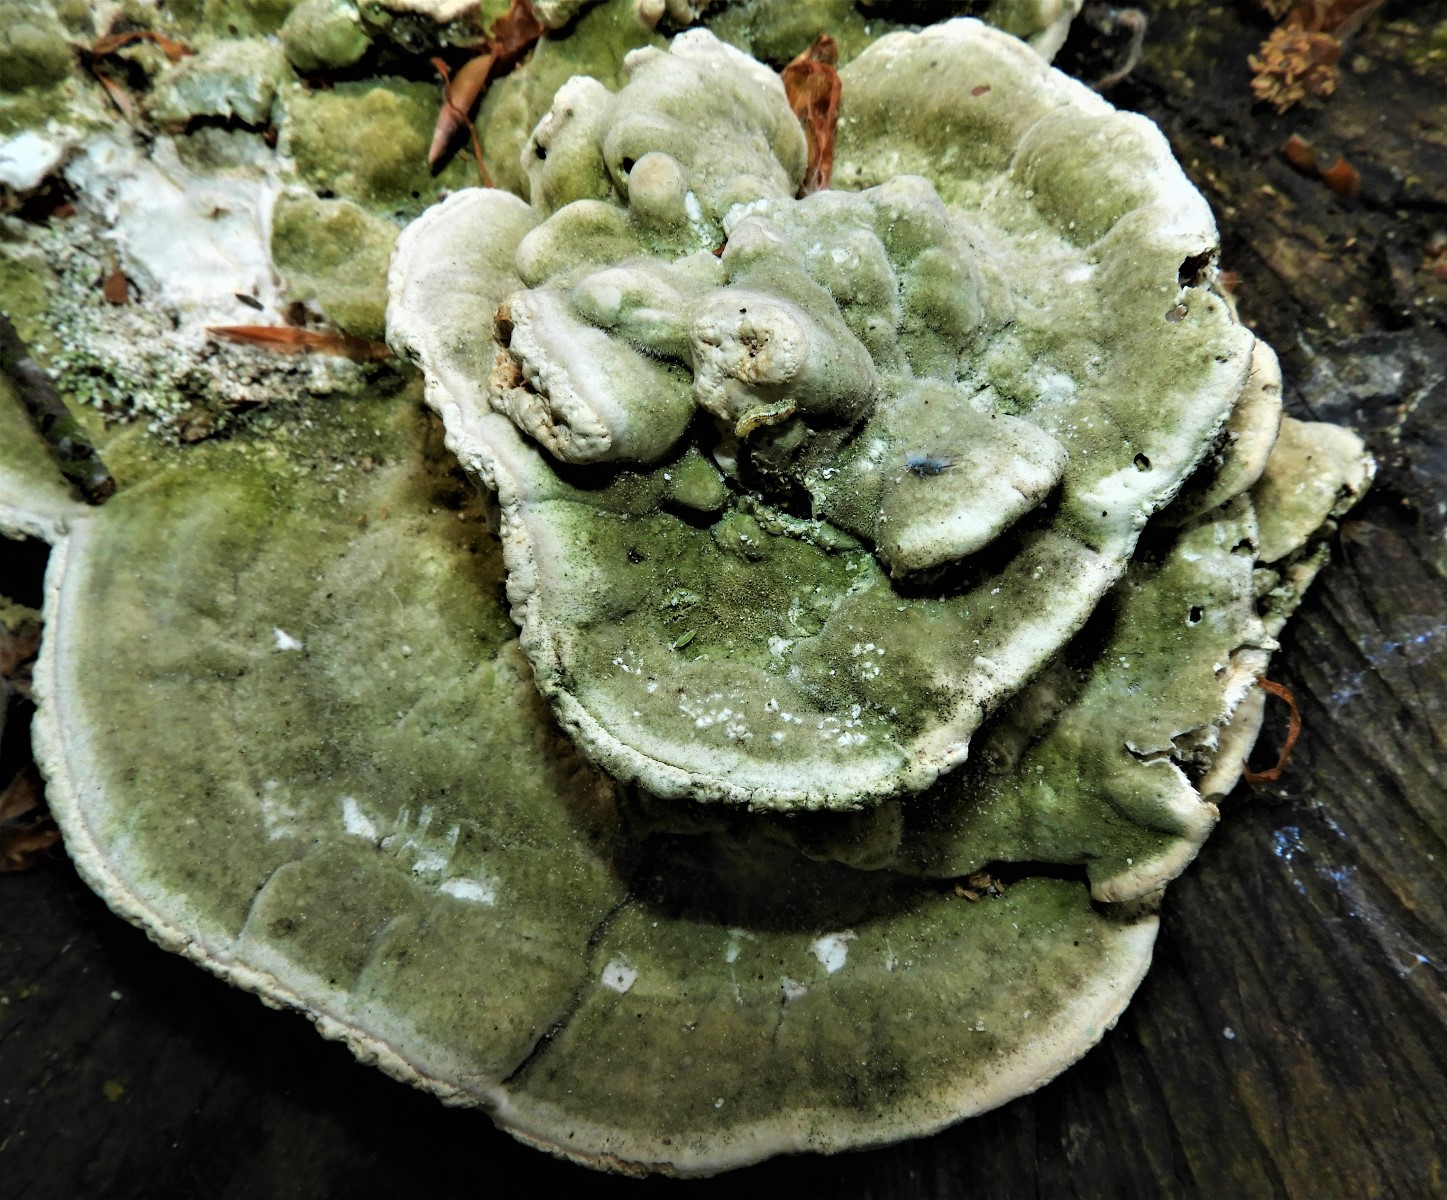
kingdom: Fungi
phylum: Basidiomycota
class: Agaricomycetes
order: Polyporales
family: Polyporaceae
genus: Trametes
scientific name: Trametes gibbosa
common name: puklet læderporesvamp
